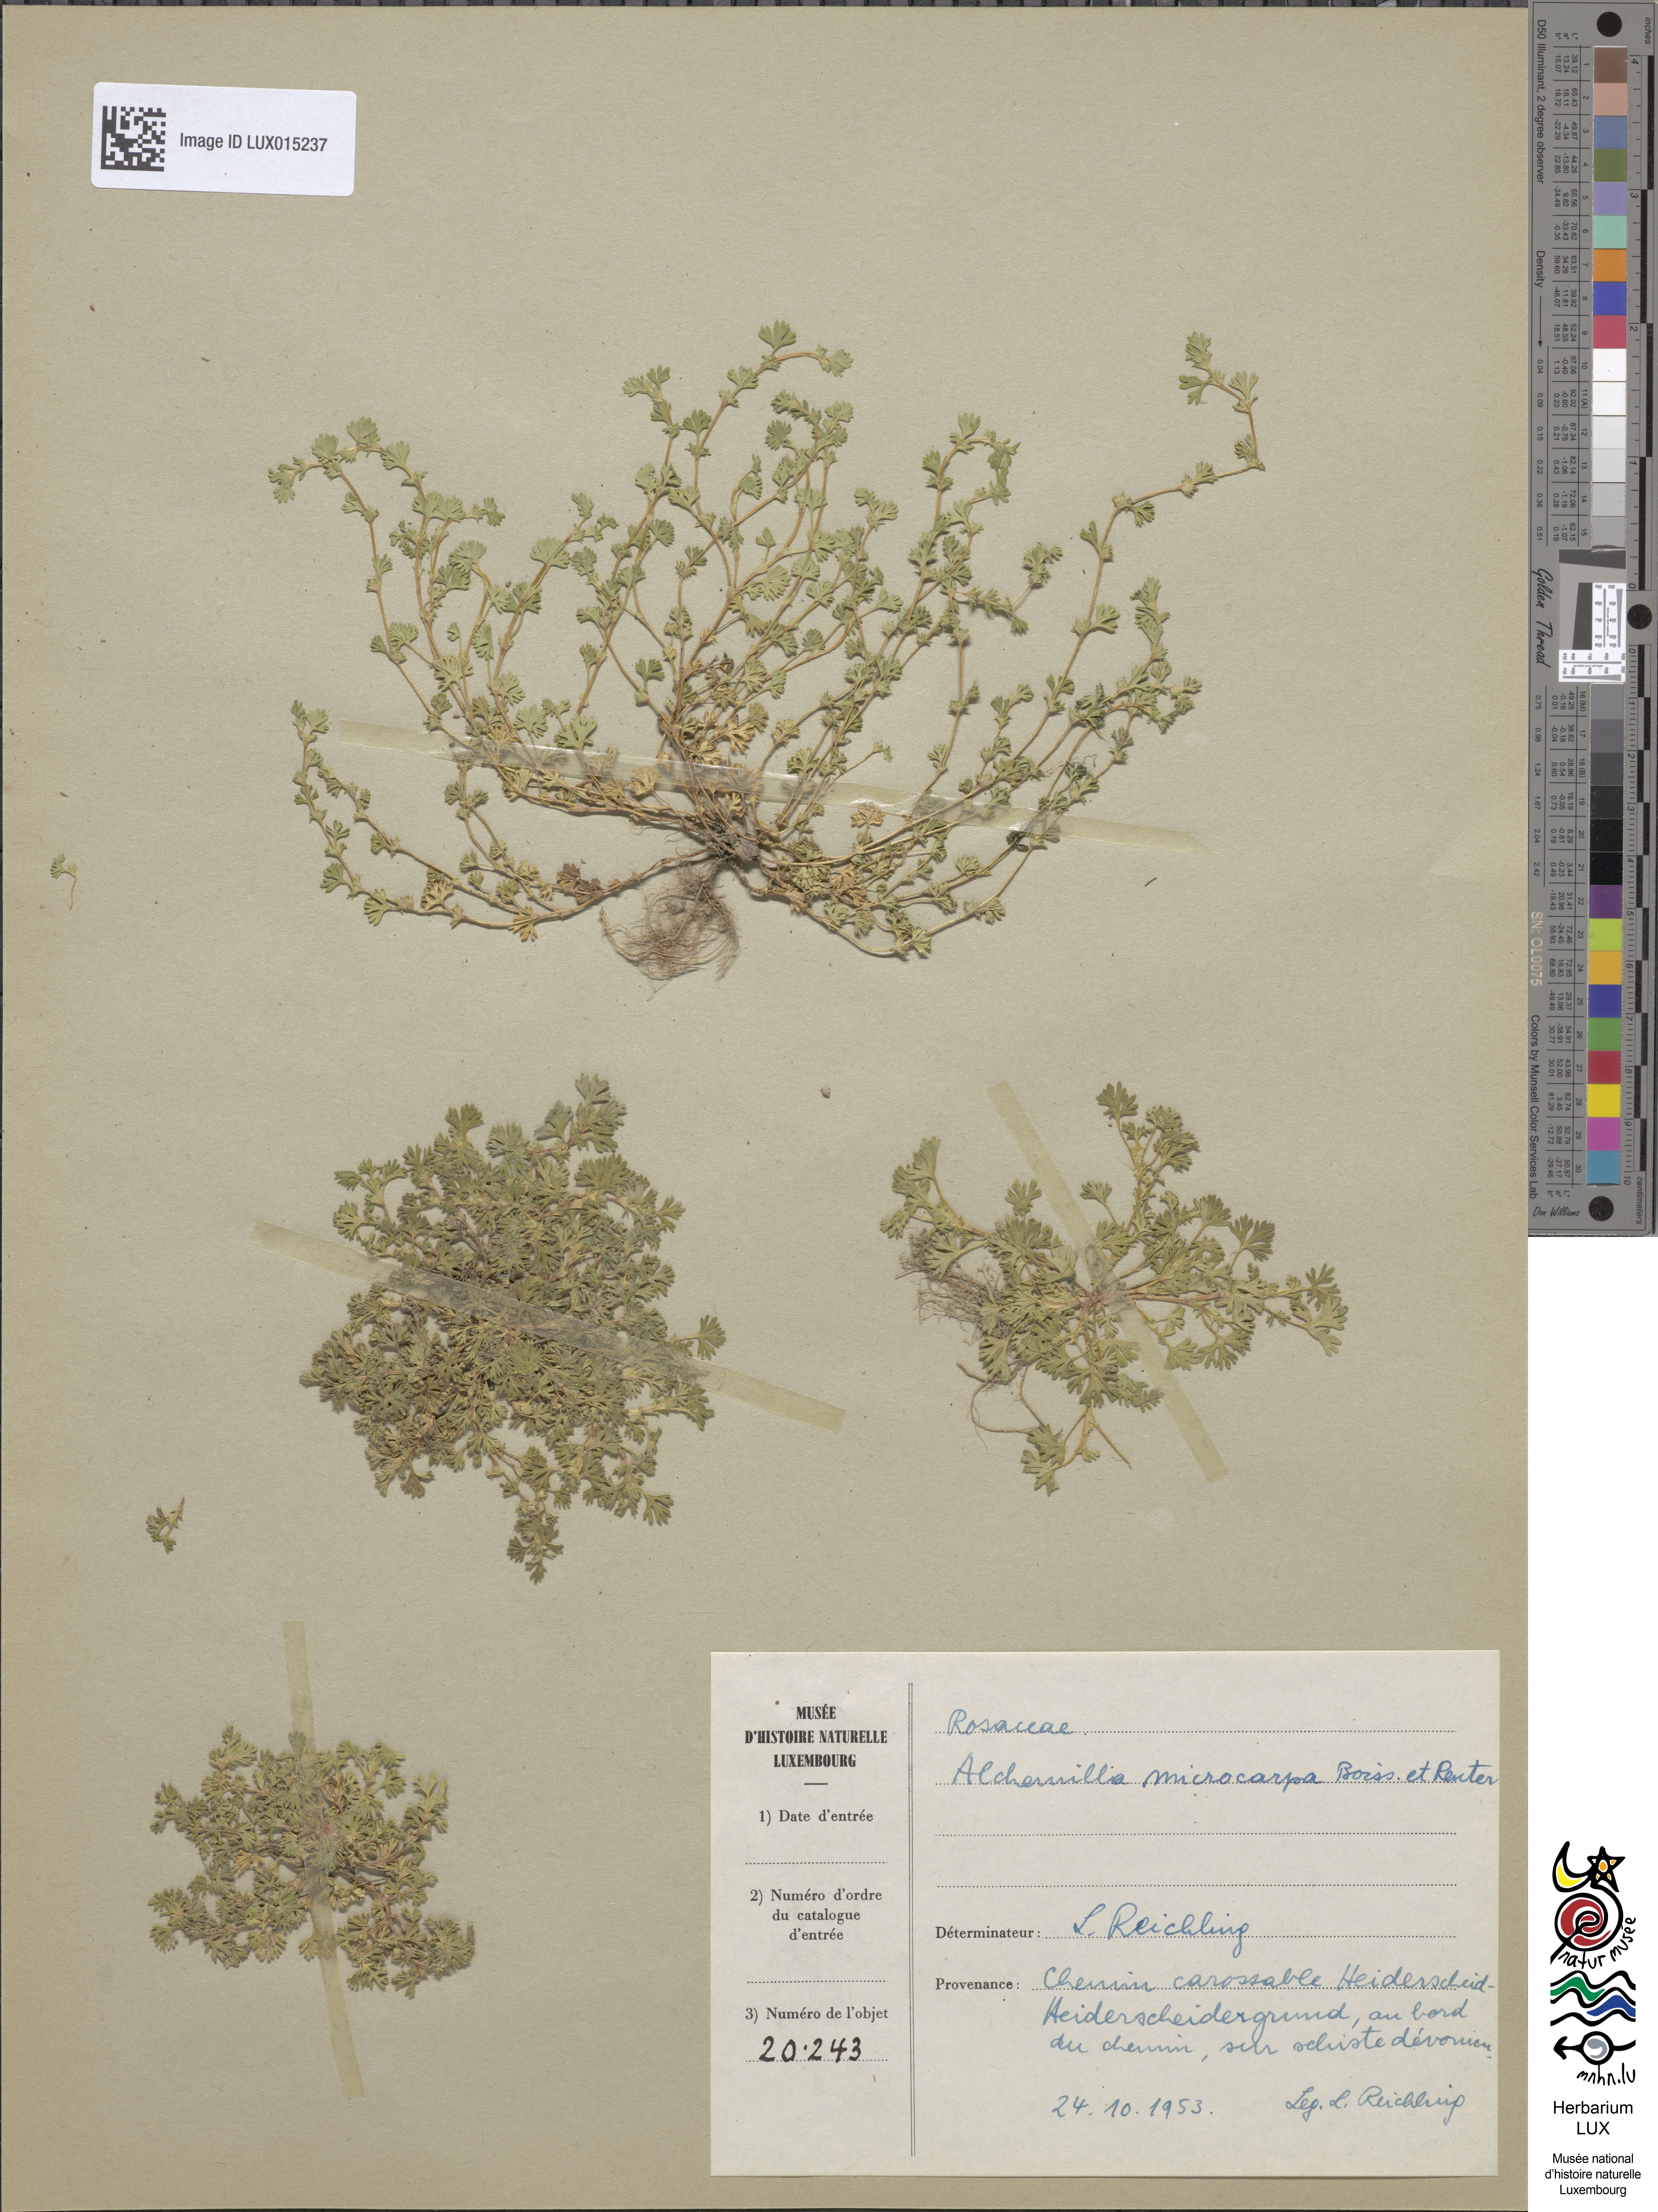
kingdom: Plantae
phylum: Tracheophyta
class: Magnoliopsida
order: Rosales
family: Rosaceae
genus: Aphanes
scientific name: Aphanes microcarpa
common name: Slender parsley piert
